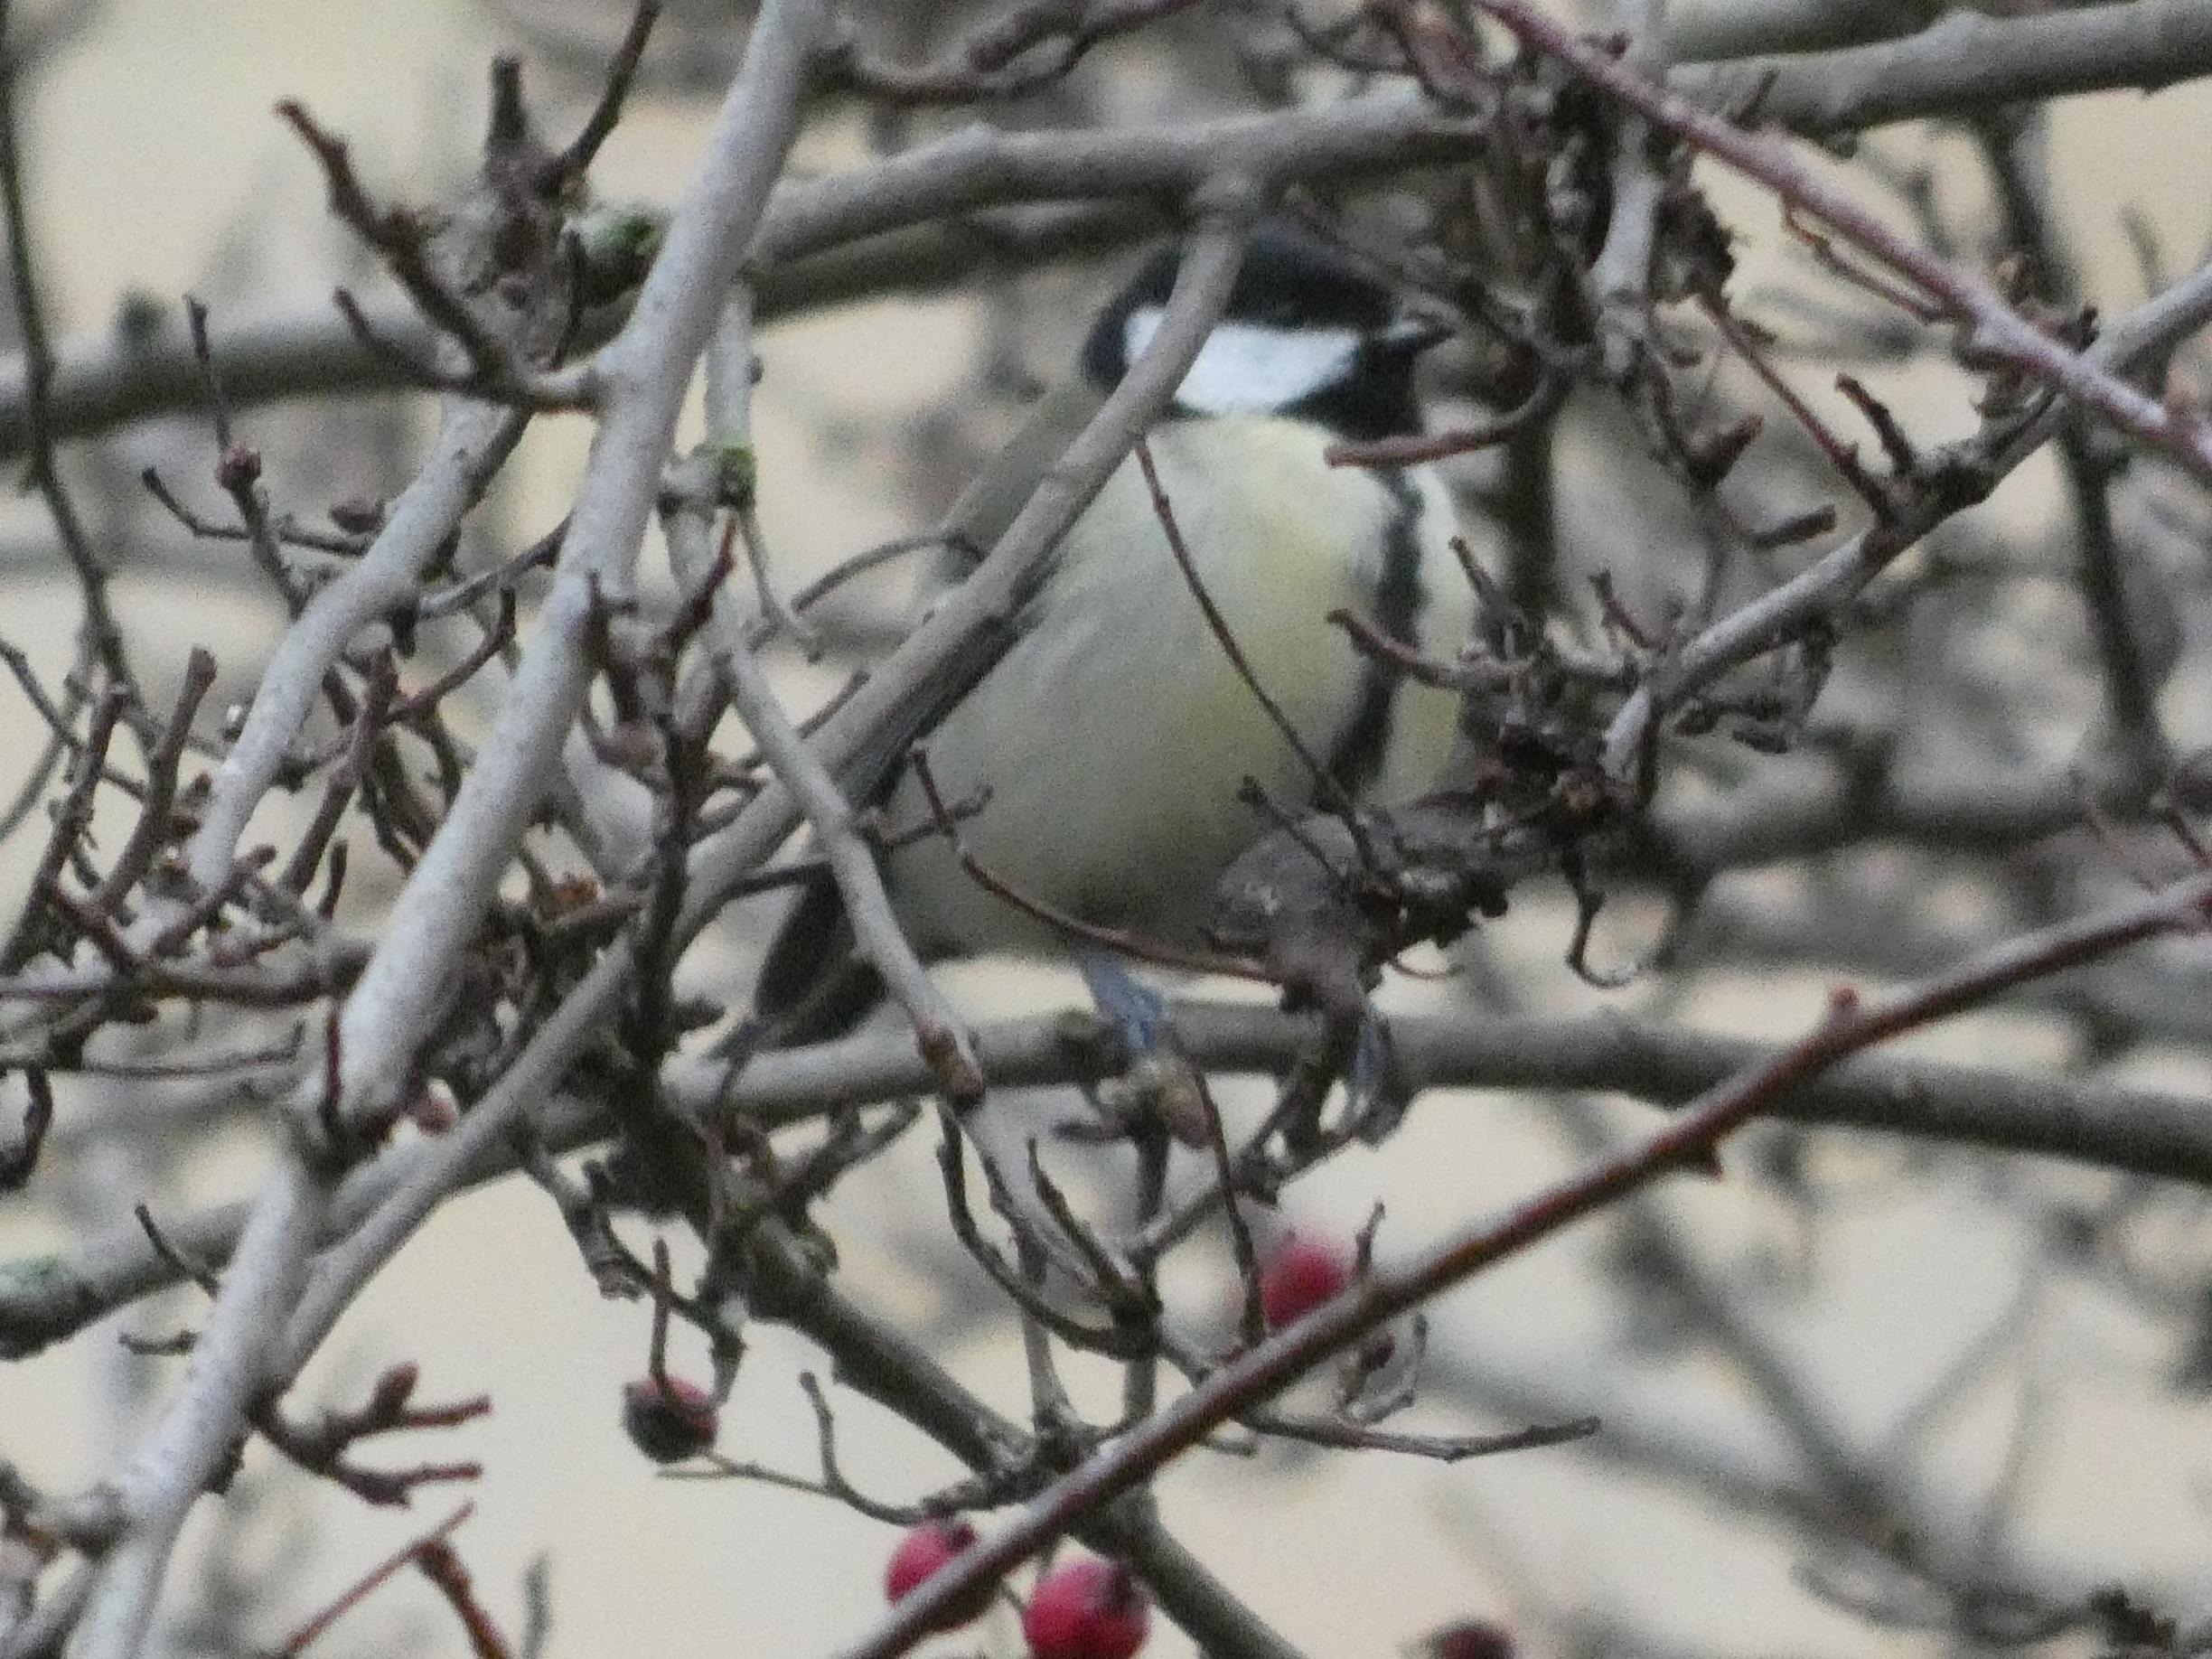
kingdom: Animalia
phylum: Chordata
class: Aves
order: Passeriformes
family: Paridae
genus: Parus
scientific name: Parus major
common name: Musvit
